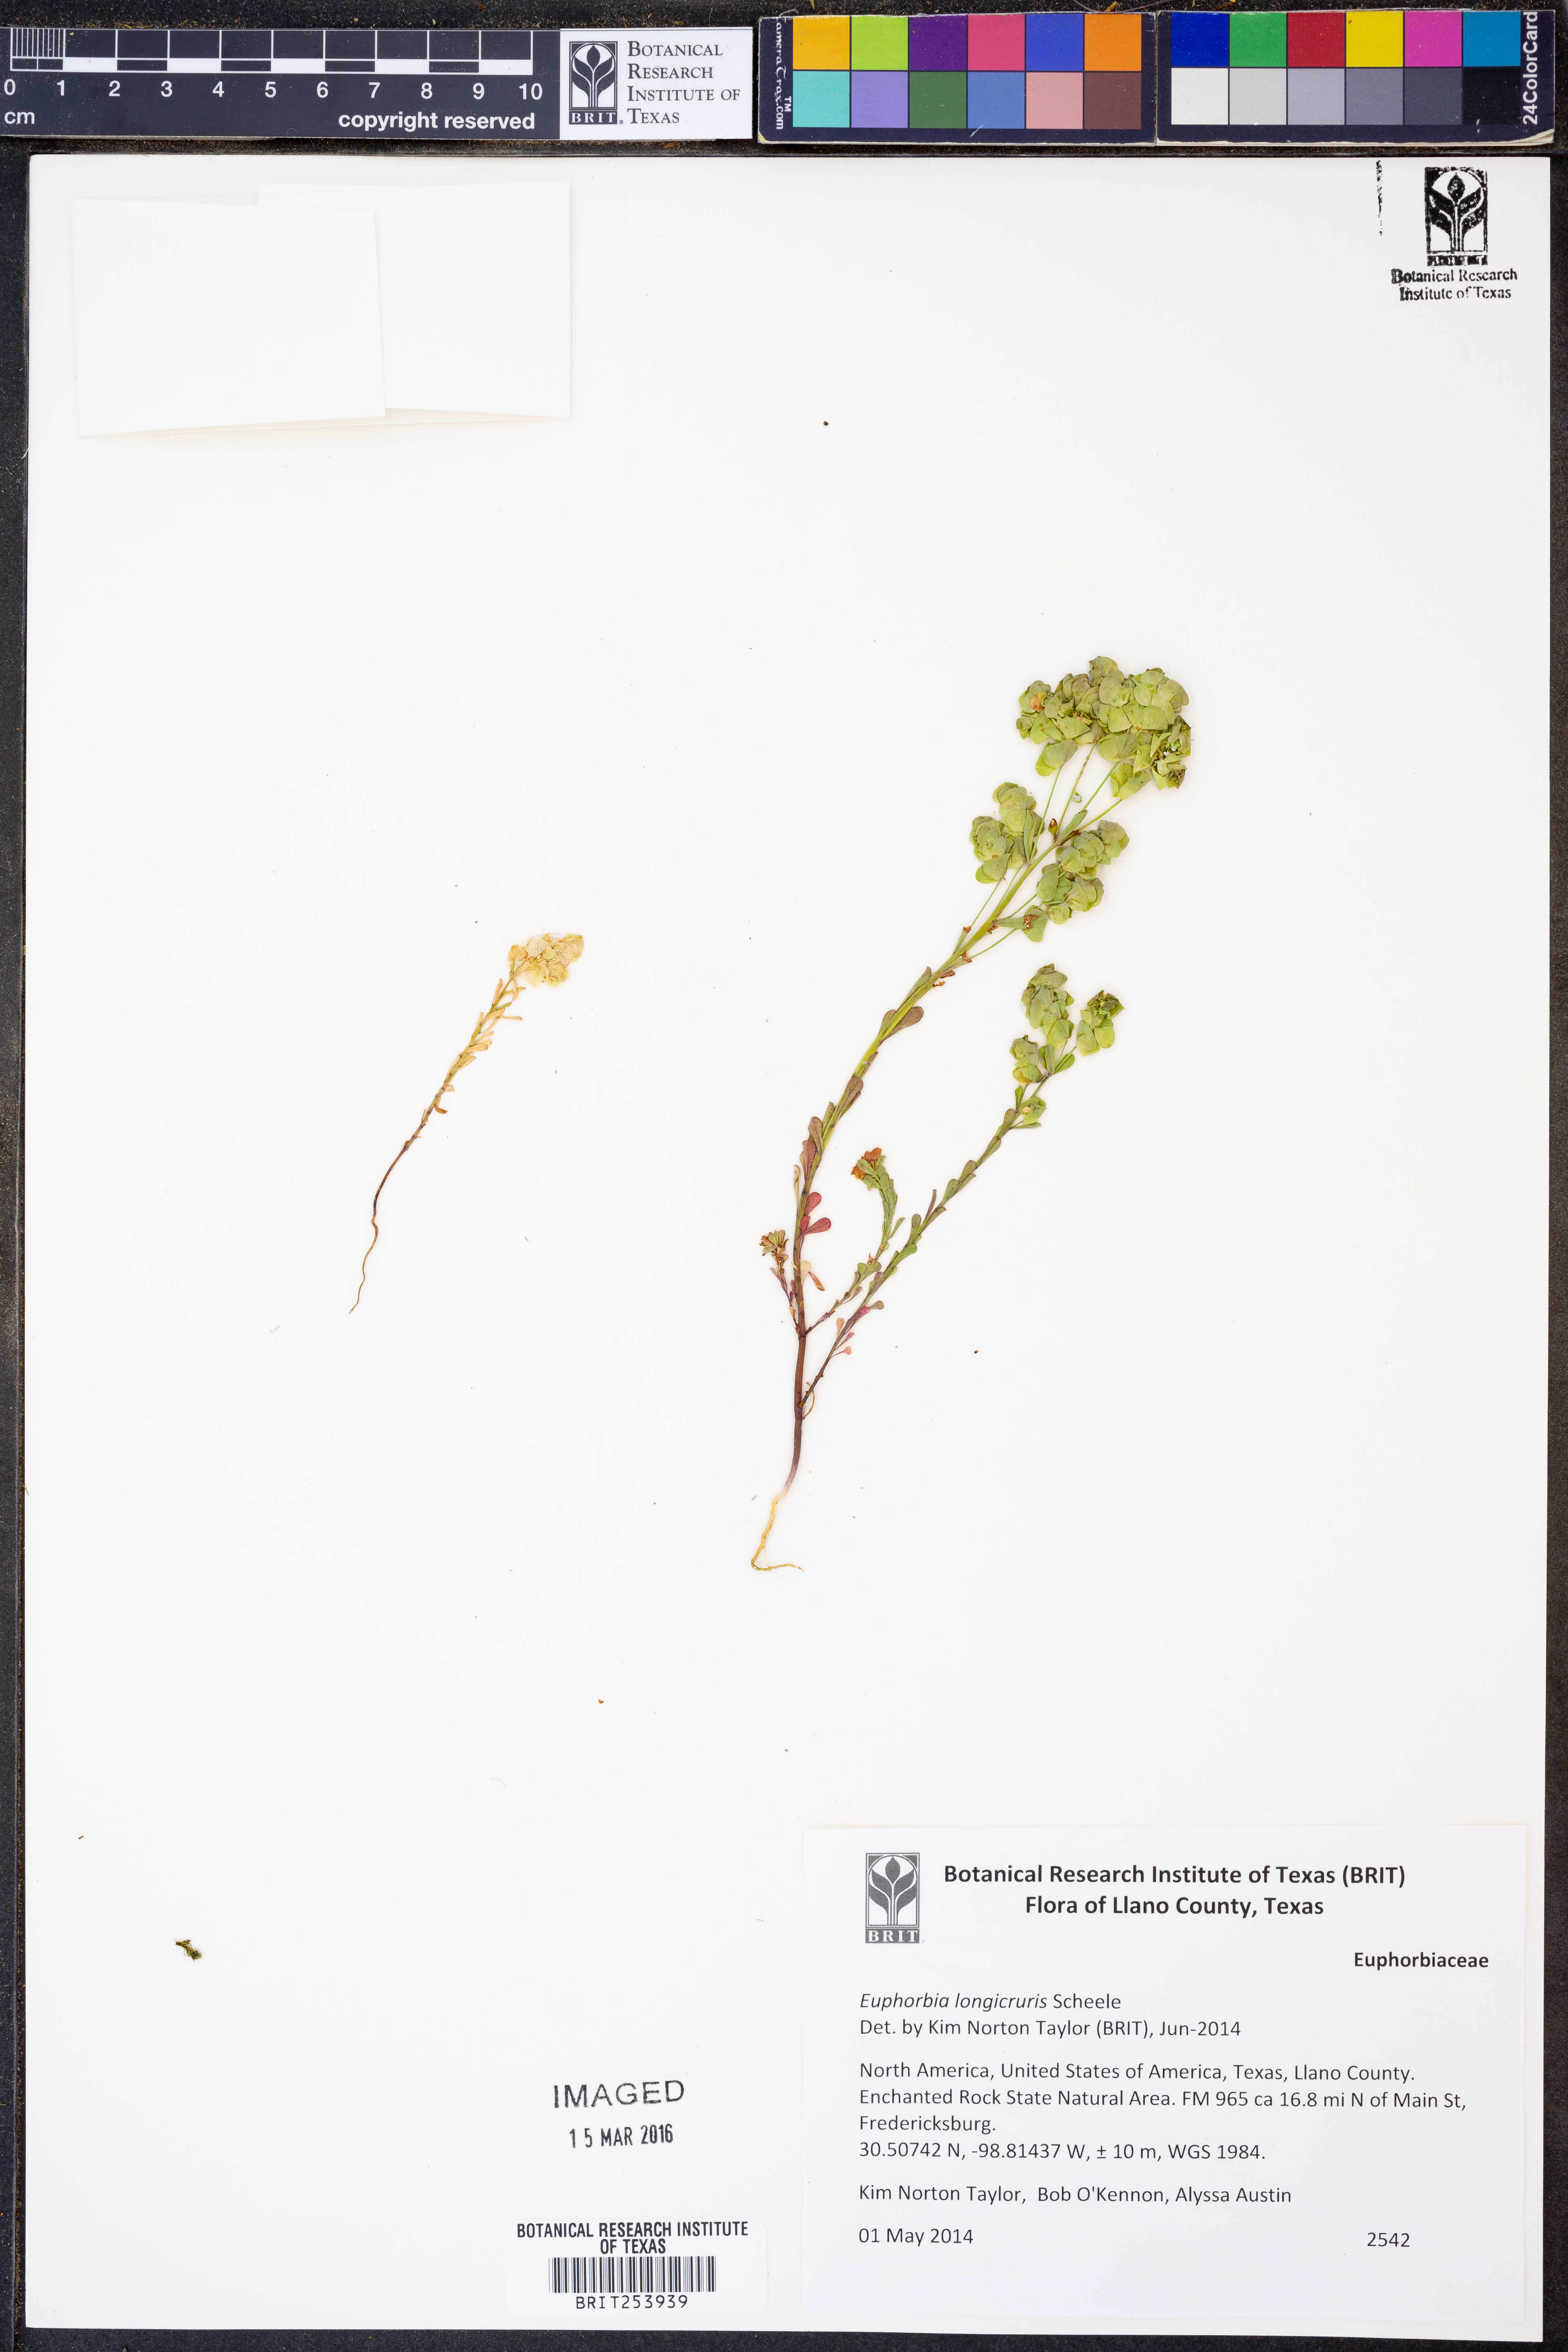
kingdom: Plantae
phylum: Tracheophyta
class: Magnoliopsida
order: Malpighiales
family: Euphorbiaceae
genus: Euphorbia
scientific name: Euphorbia longicruris
